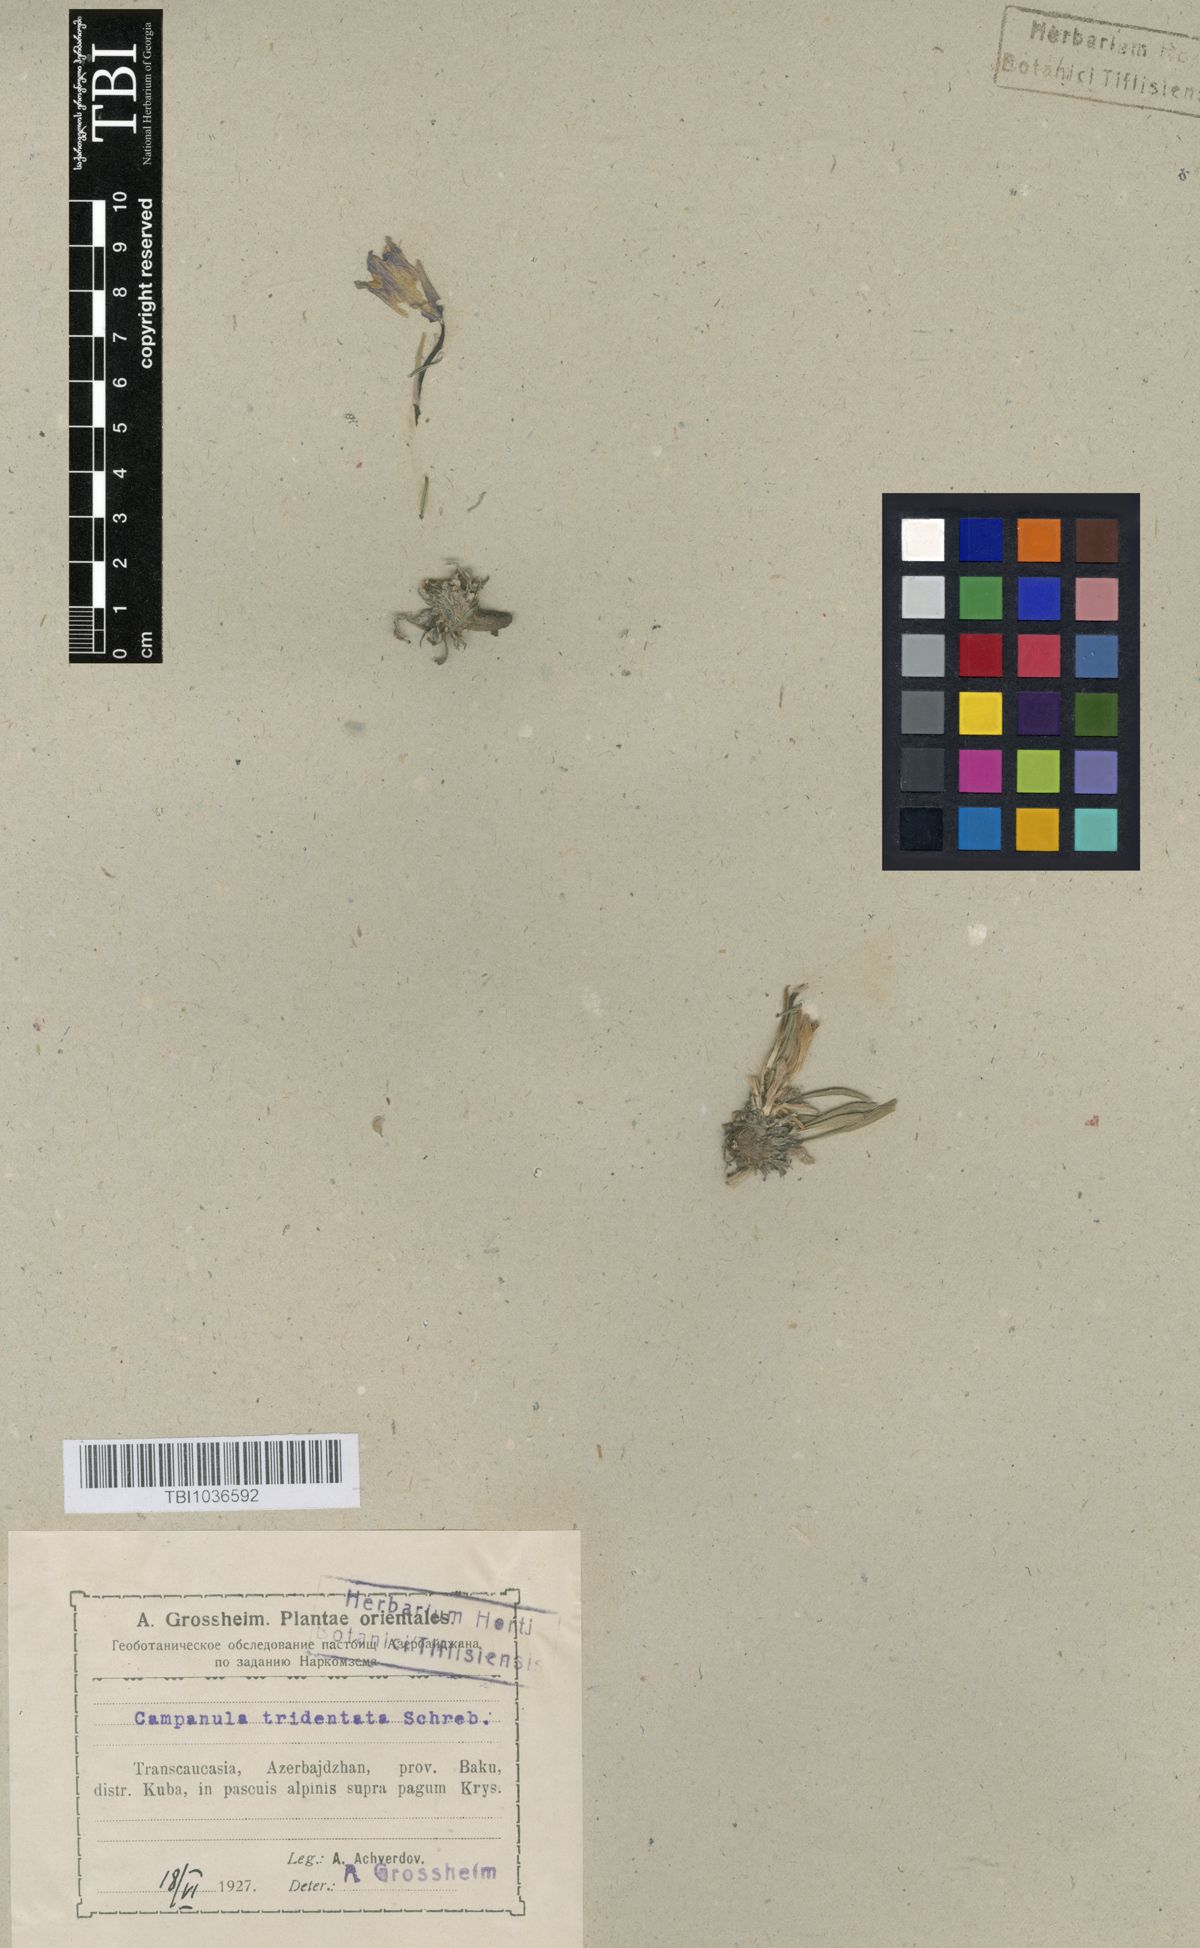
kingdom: Plantae
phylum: Tracheophyta
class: Magnoliopsida
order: Asterales
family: Campanulaceae
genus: Campanula
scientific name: Campanula tridentata
